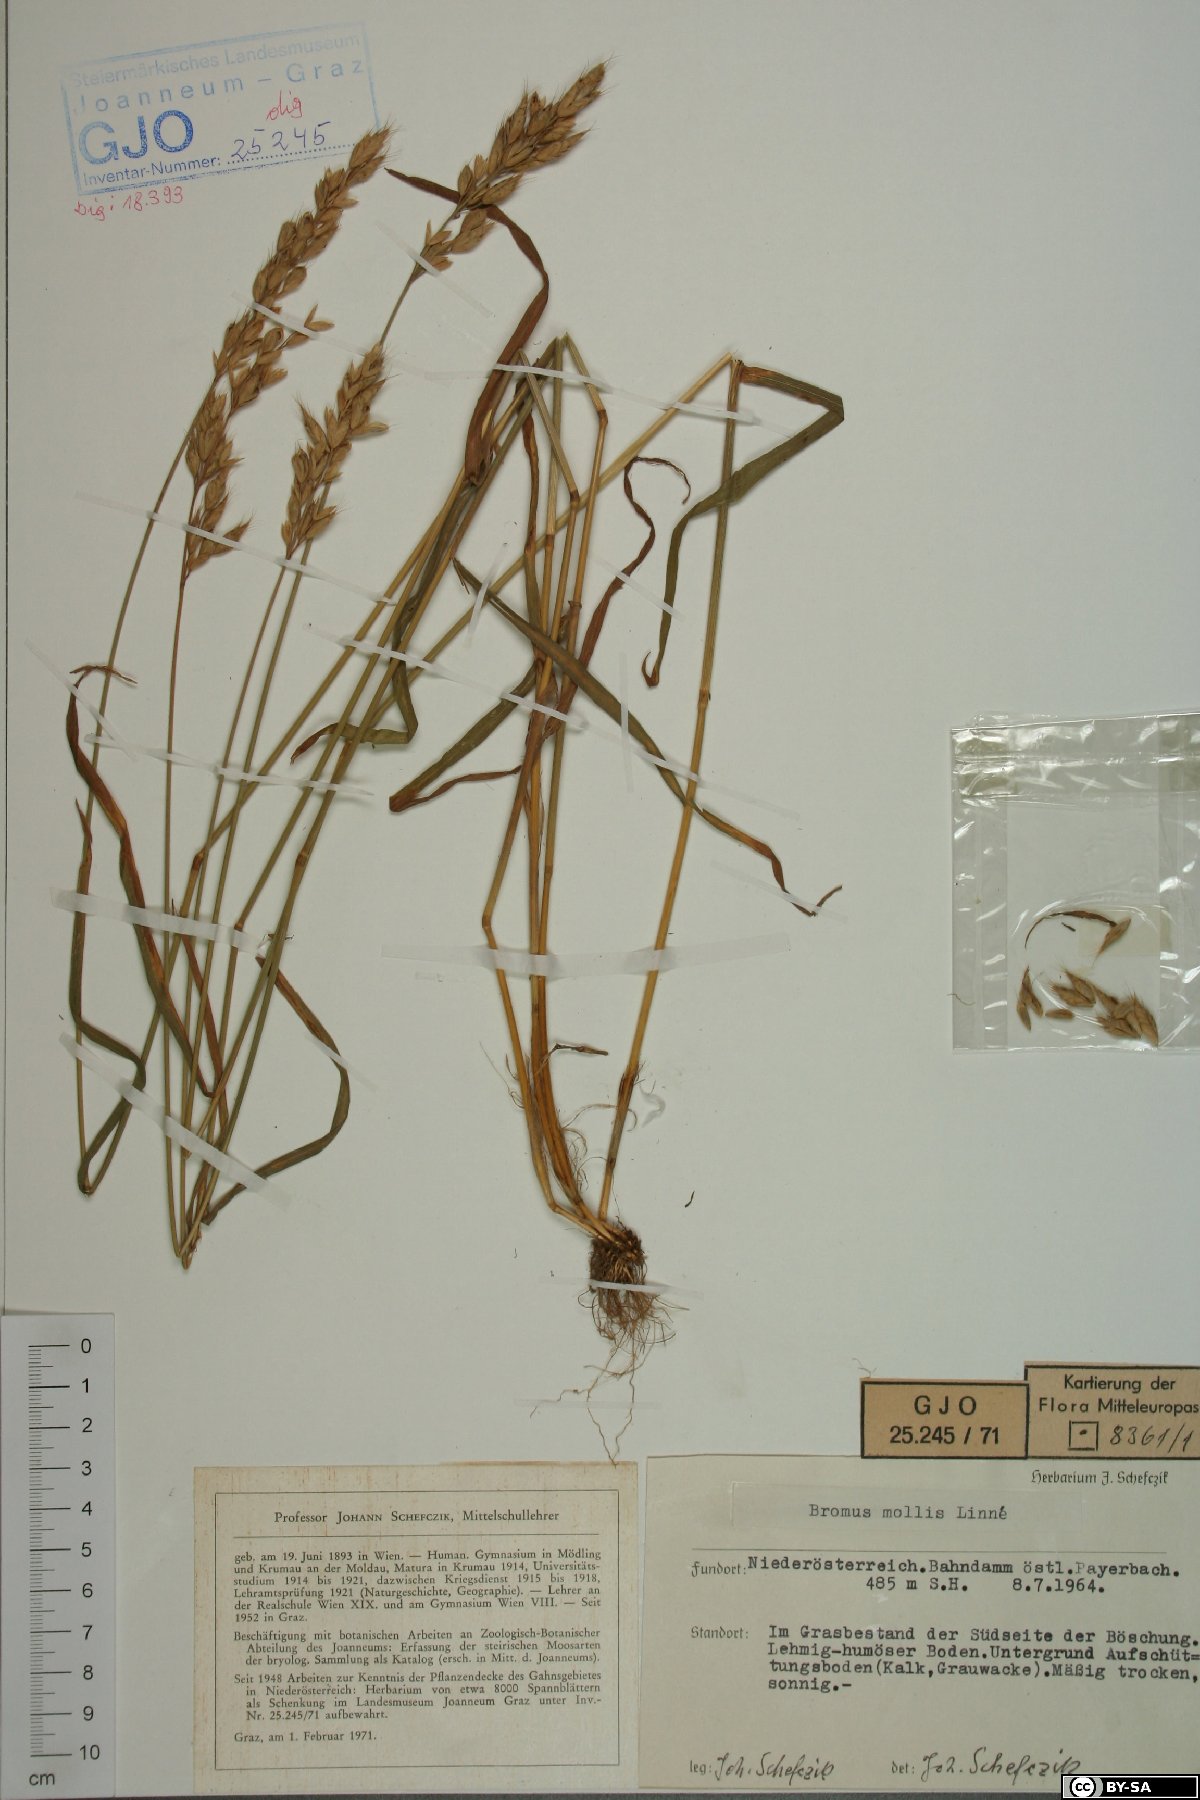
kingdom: Plantae
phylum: Tracheophyta
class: Liliopsida
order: Poales
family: Poaceae
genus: Bromus
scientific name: Bromus hordeaceus
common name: Soft brome
